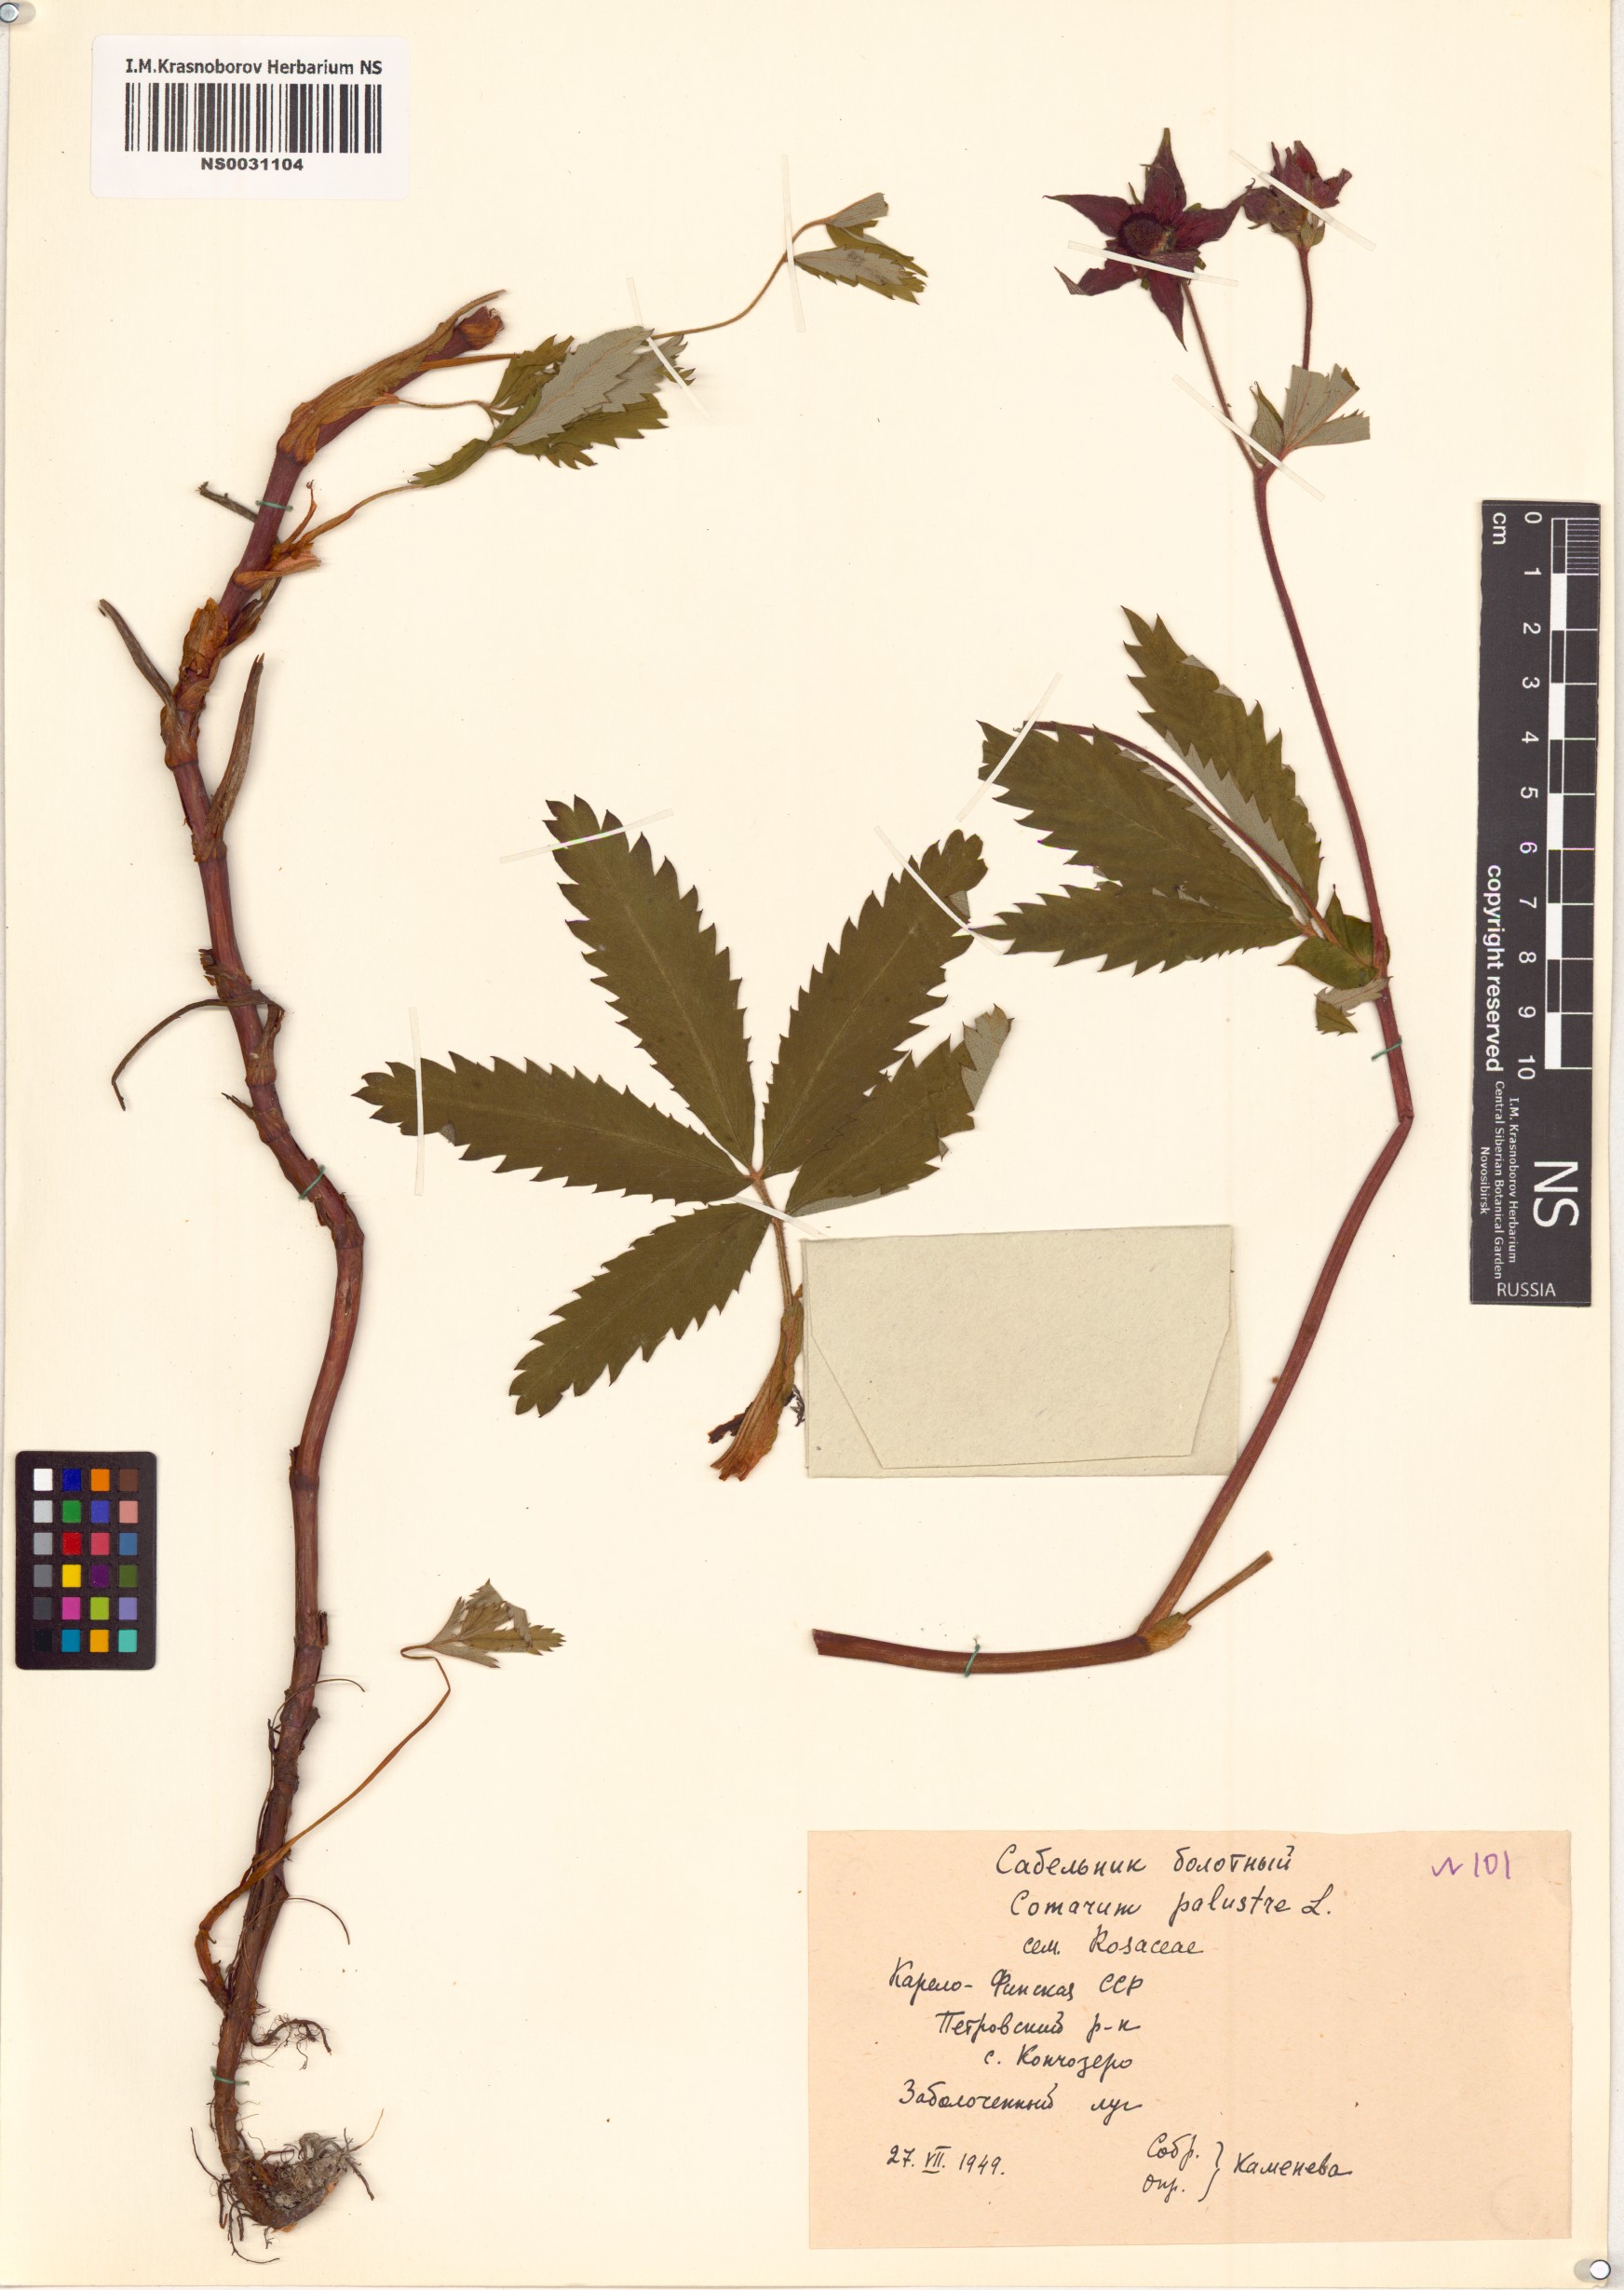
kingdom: Plantae
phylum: Tracheophyta
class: Magnoliopsida
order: Rosales
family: Rosaceae
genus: Comarum
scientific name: Comarum palustre
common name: Marsh cinquefoil
